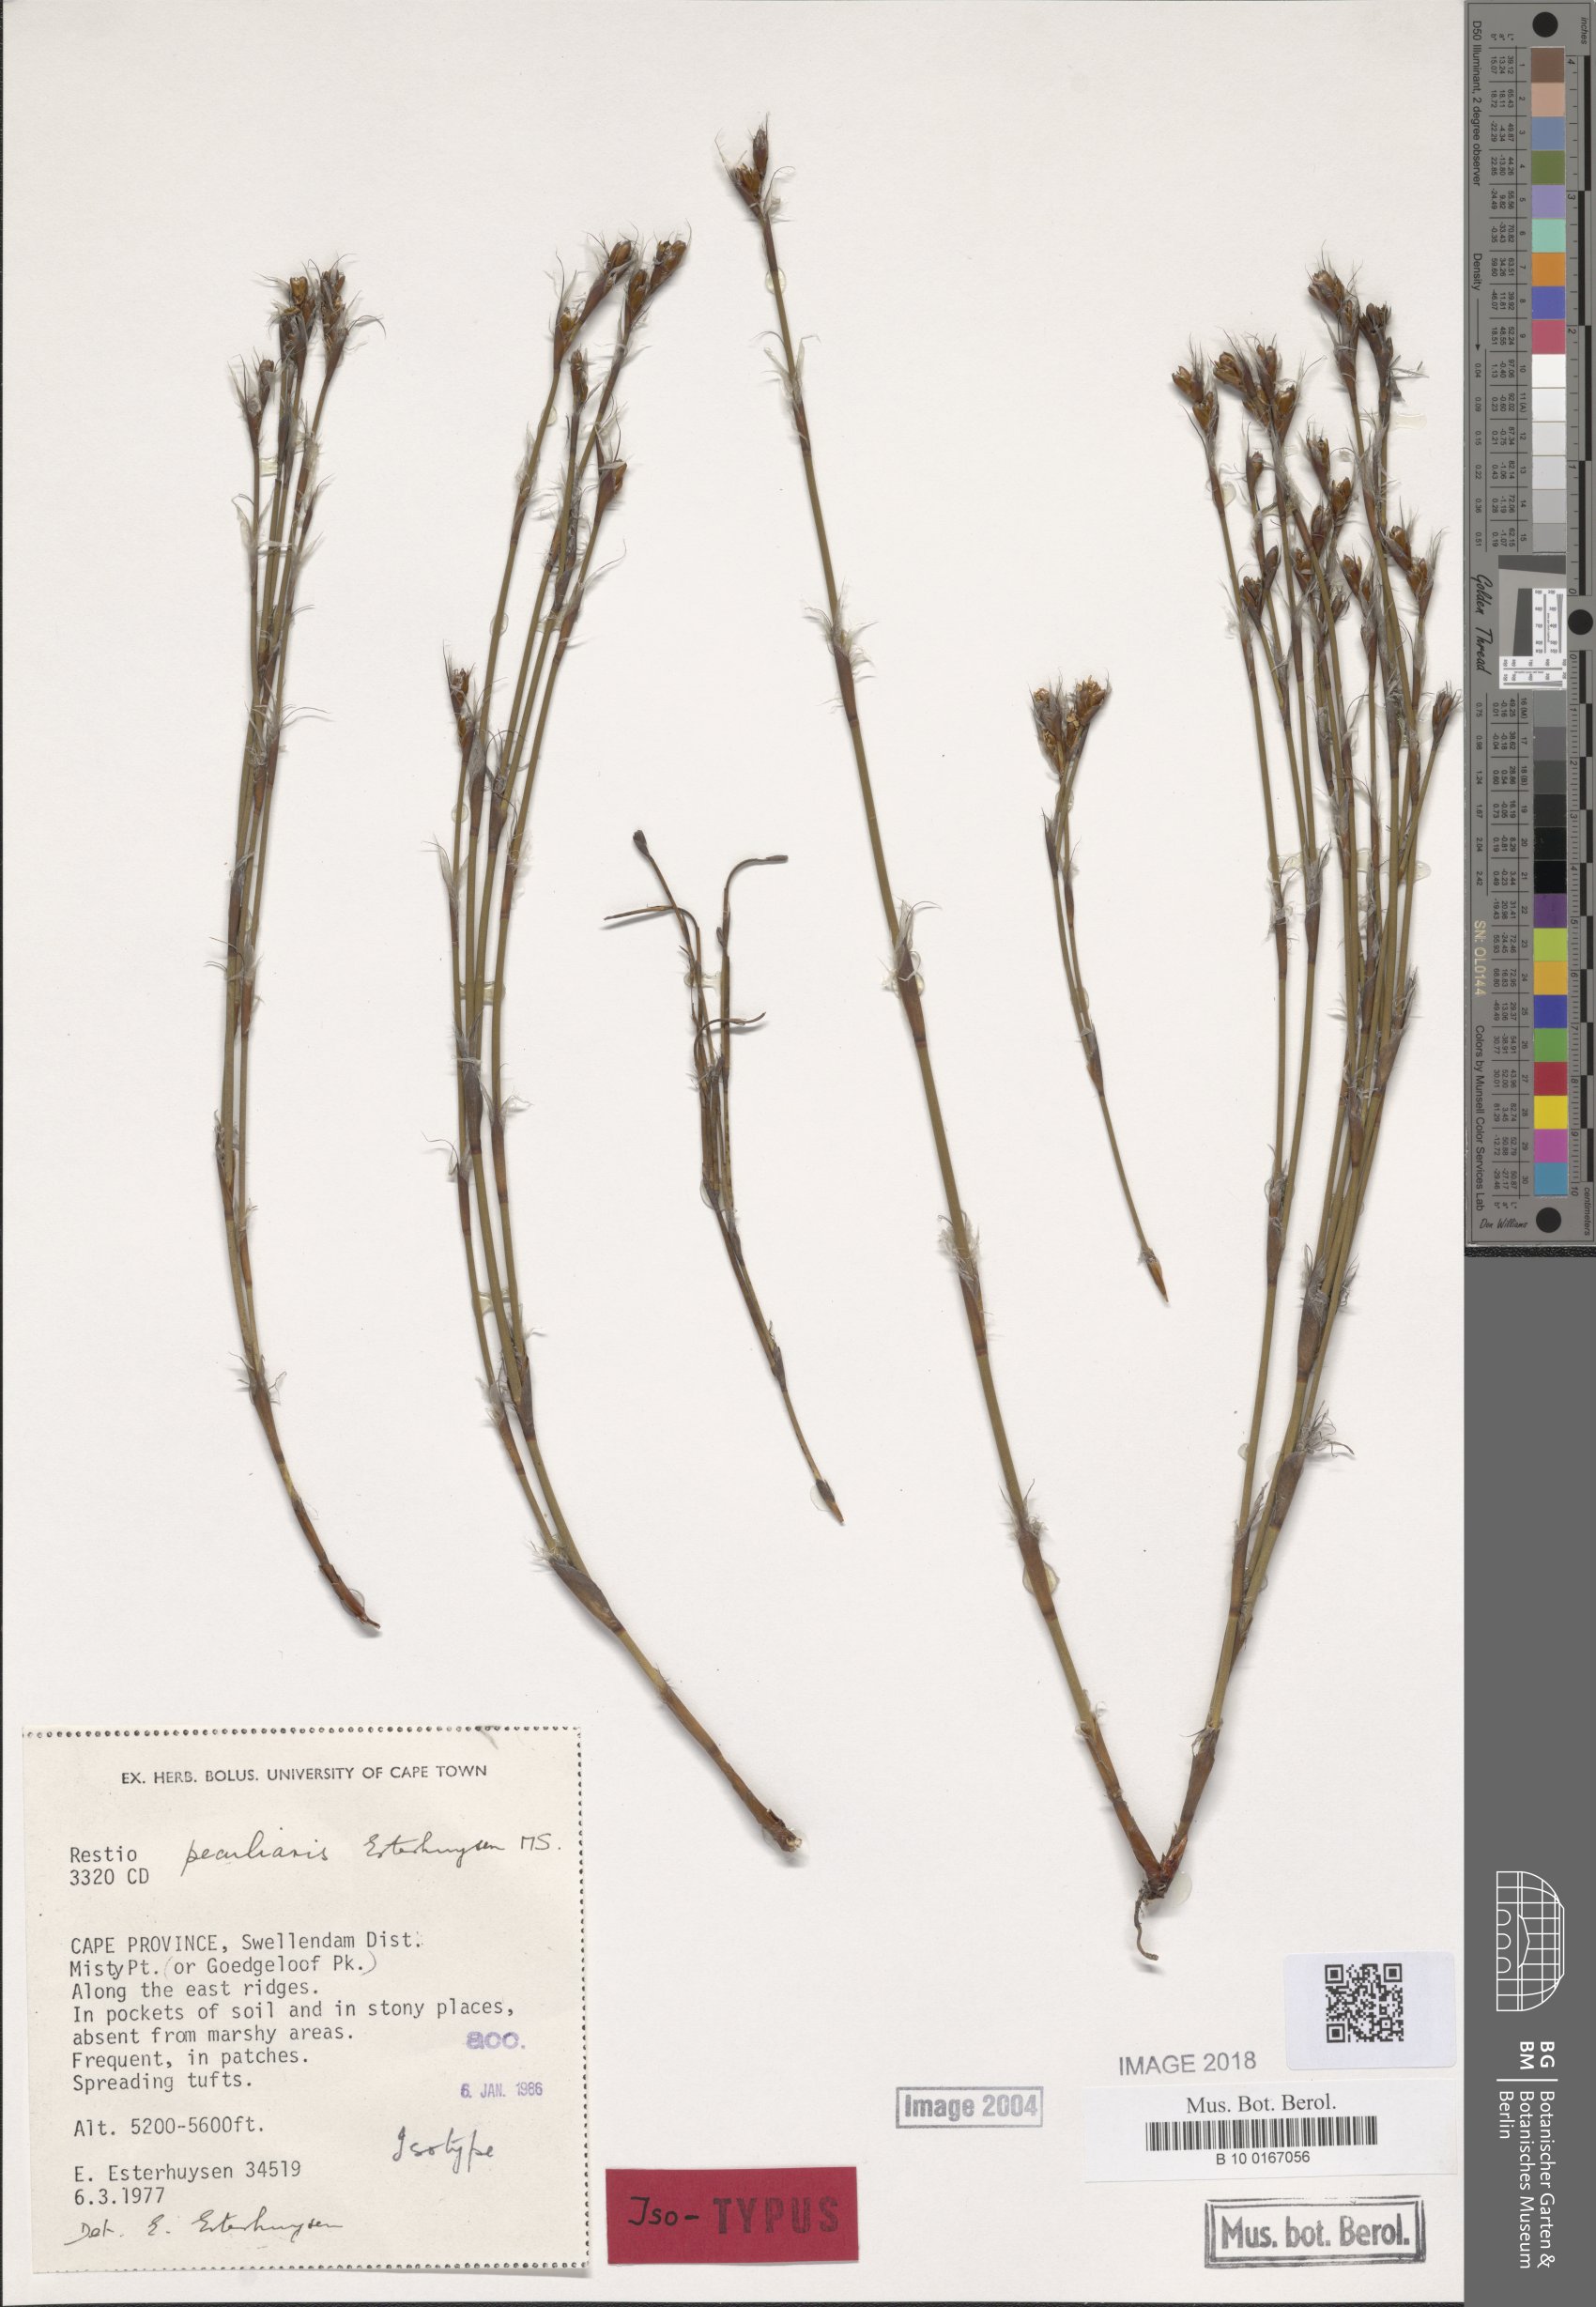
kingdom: Plantae
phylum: Tracheophyta
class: Liliopsida
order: Poales
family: Restionaceae
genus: Restio
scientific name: Restio peculiaris
